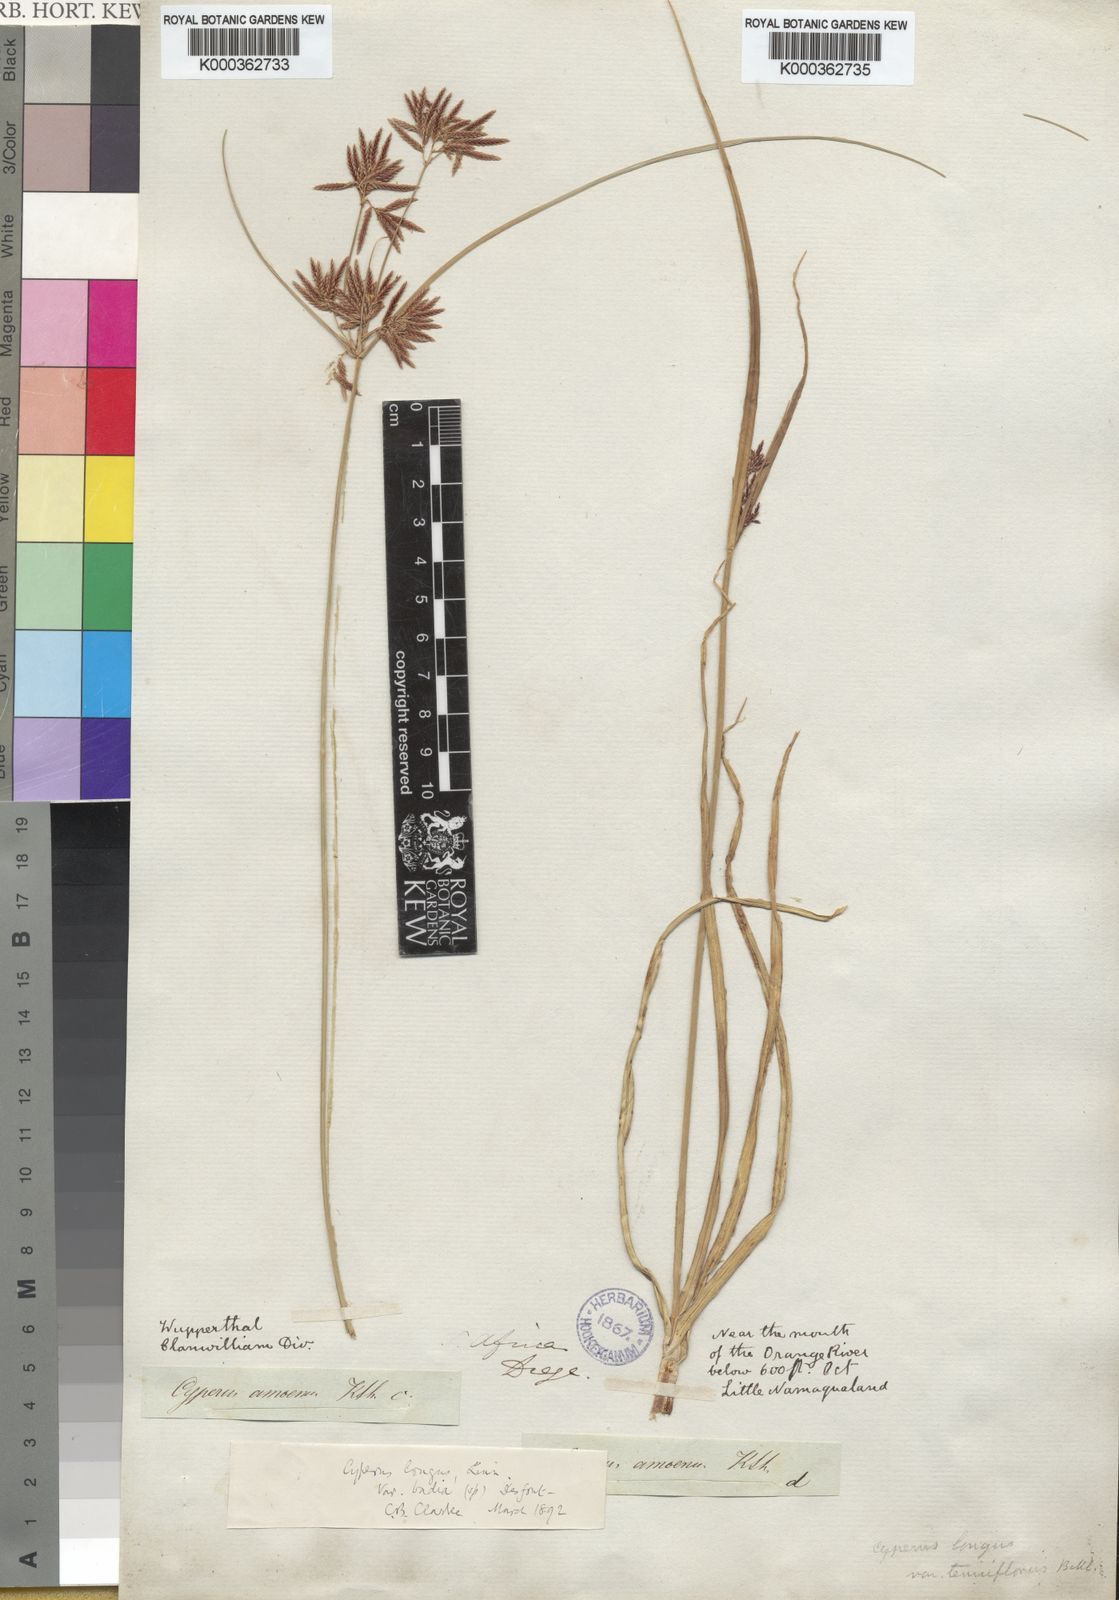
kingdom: Plantae
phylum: Tracheophyta
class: Liliopsida
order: Poales
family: Cyperaceae
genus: Cyperus
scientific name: Cyperus longus
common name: Galingale
